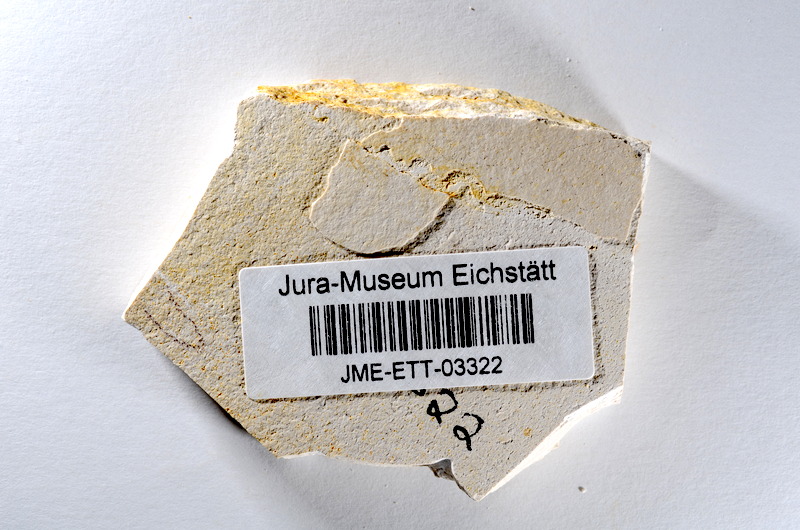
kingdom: Animalia
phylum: Chordata
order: Salmoniformes
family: Orthogonikleithridae
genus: Orthogonikleithrus
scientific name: Orthogonikleithrus hoelli
